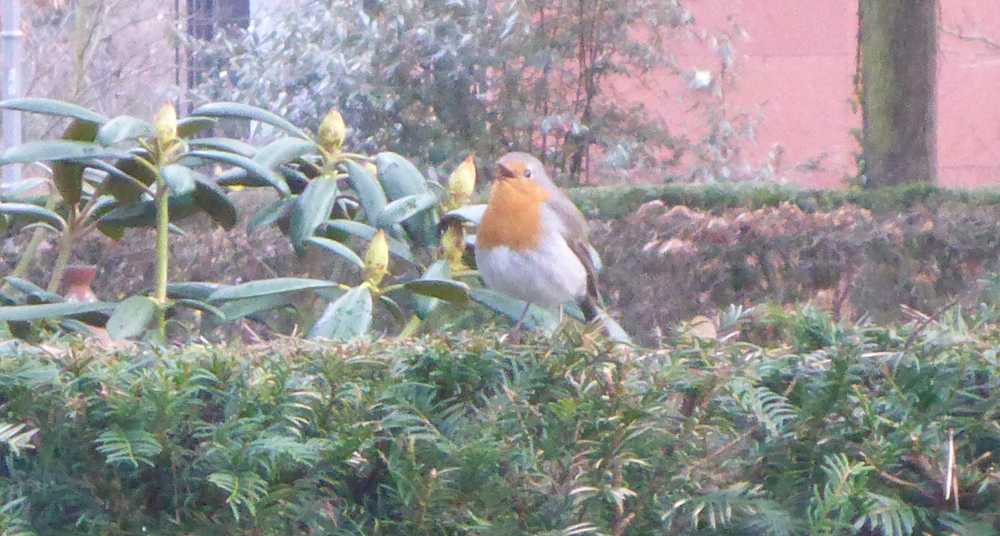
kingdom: Animalia
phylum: Chordata
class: Aves
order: Passeriformes
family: Muscicapidae
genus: Erithacus
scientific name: Erithacus rubecula
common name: European robin
